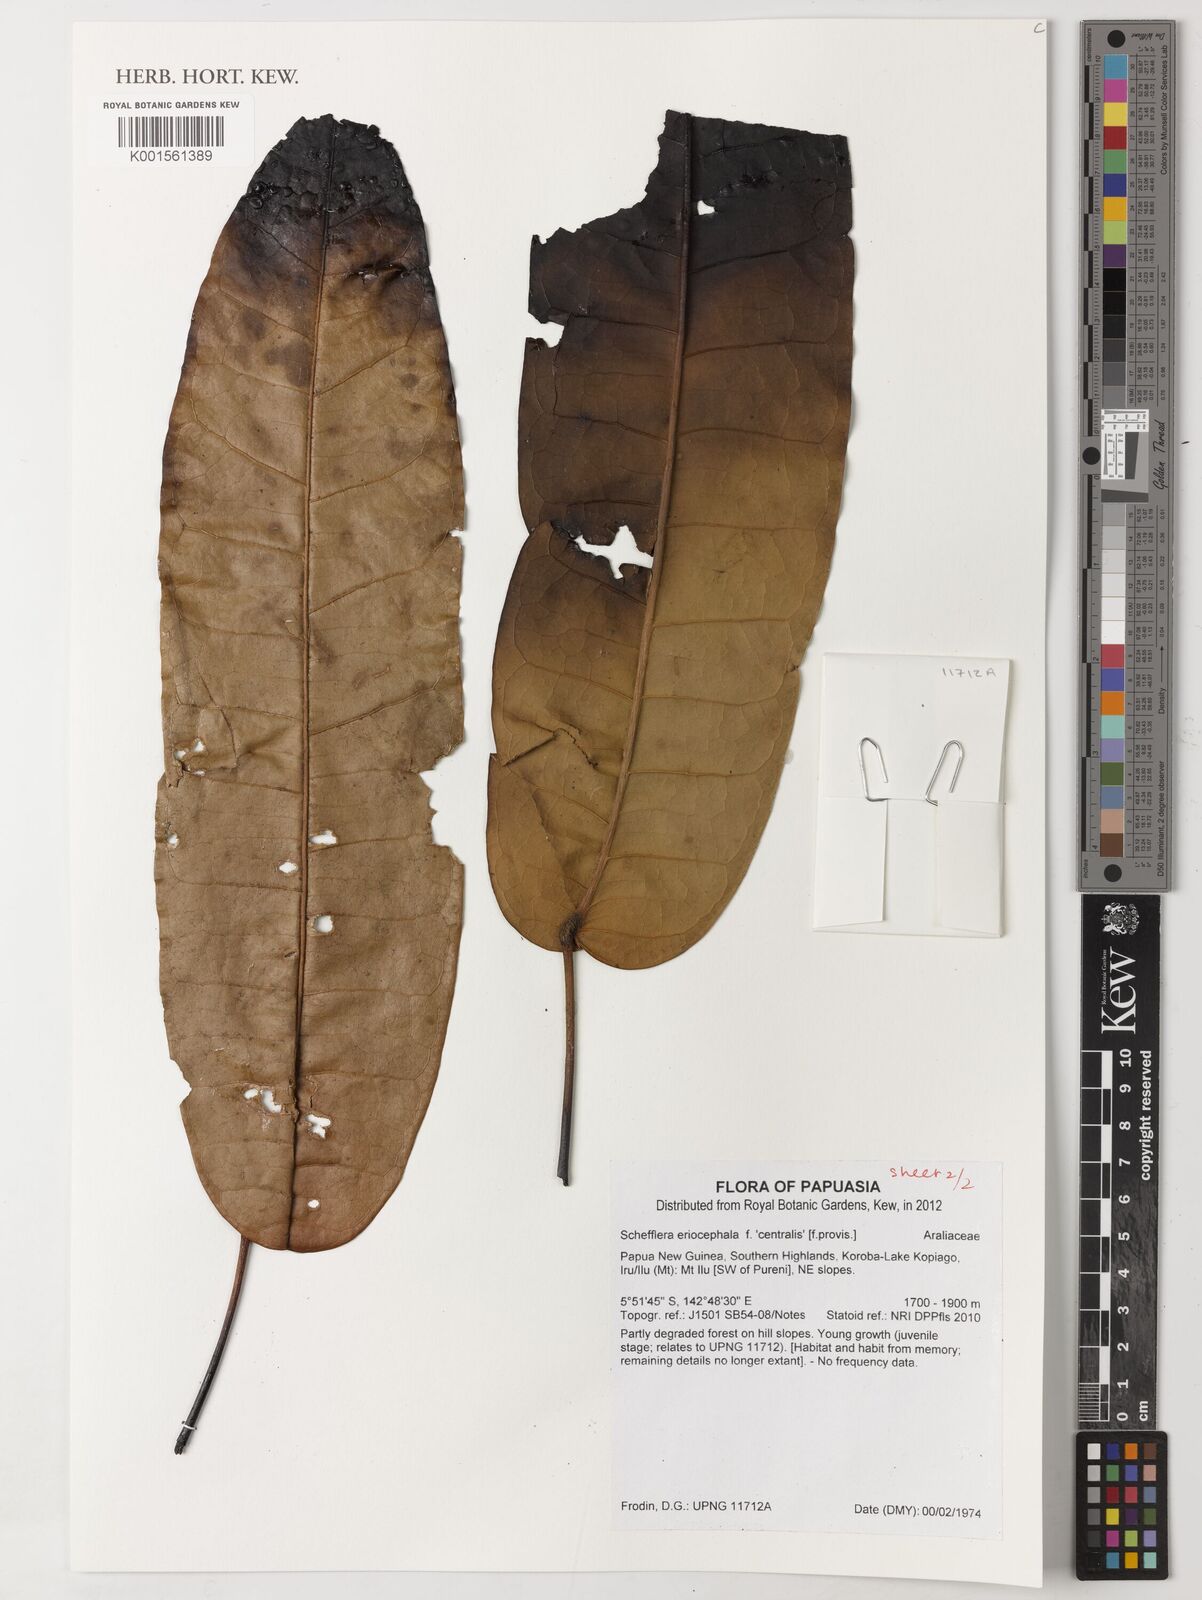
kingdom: Plantae
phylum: Tracheophyta
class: Magnoliopsida
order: Apiales
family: Araliaceae
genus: Schefflera
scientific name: Schefflera
